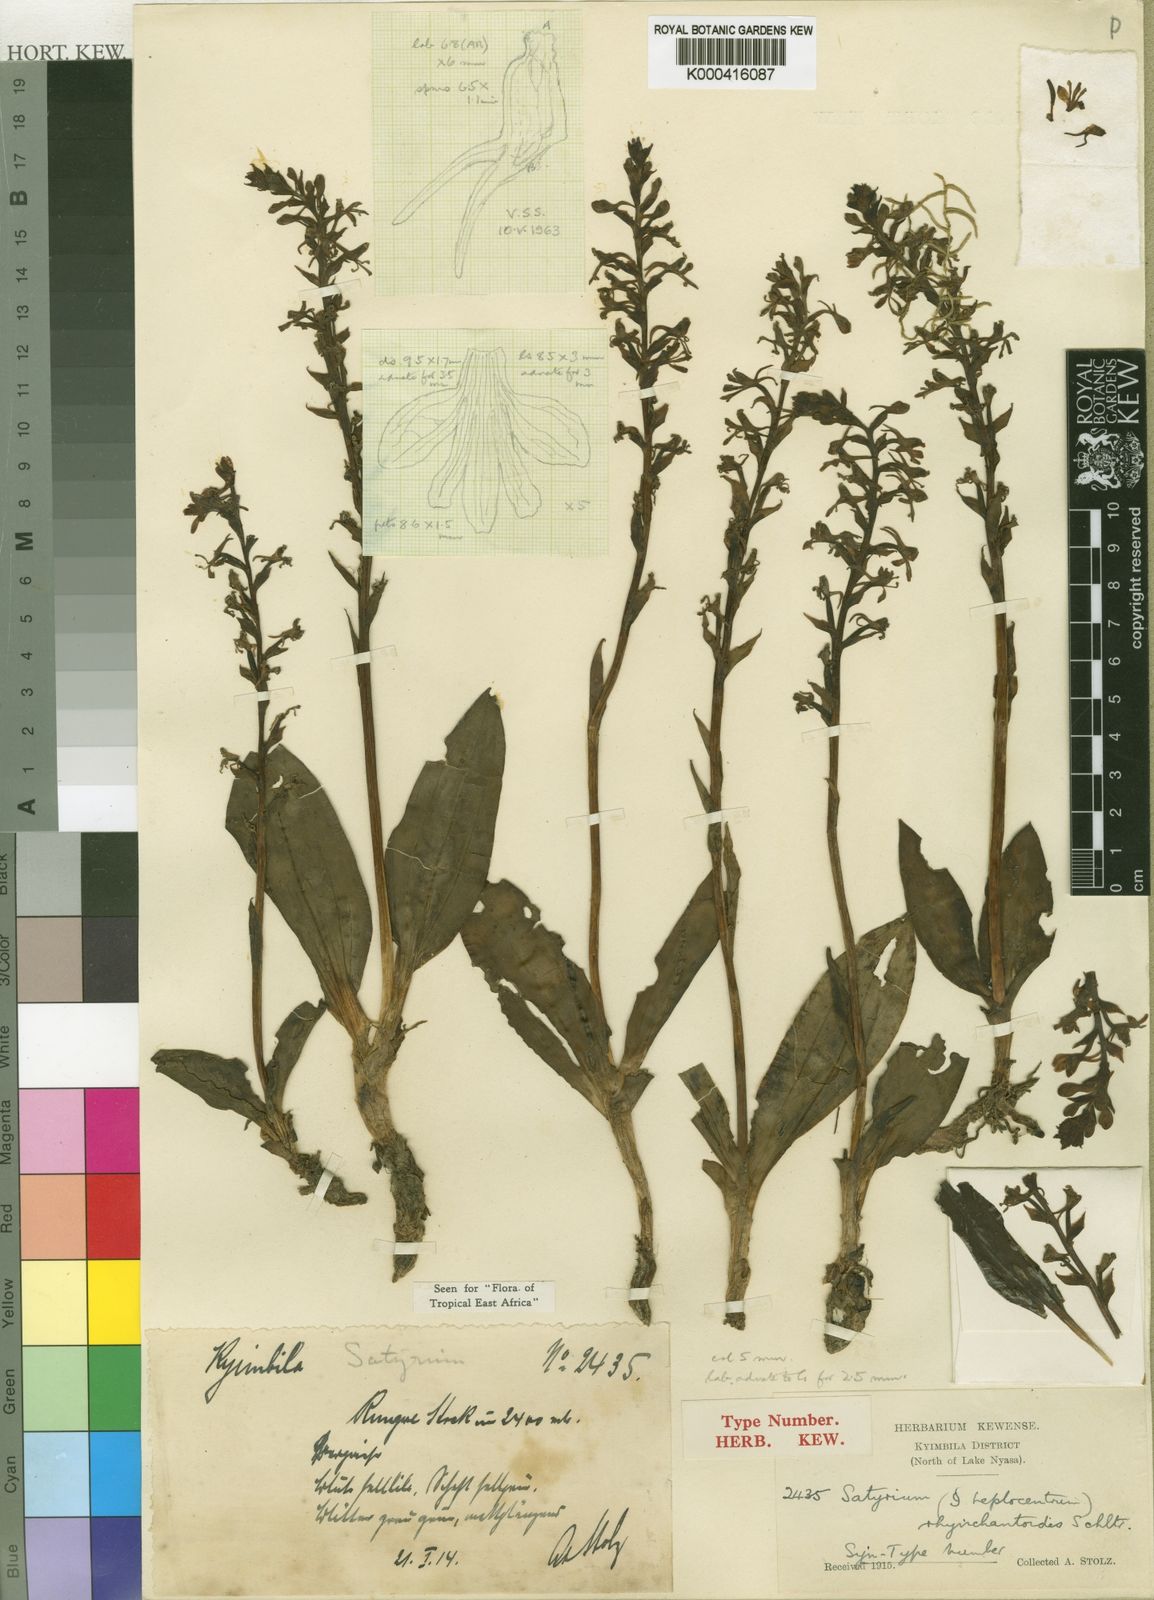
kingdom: Plantae
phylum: Tracheophyta
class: Liliopsida
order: Asparagales
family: Orchidaceae
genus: Satyrium
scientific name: Satyrium rhynchanthoides
